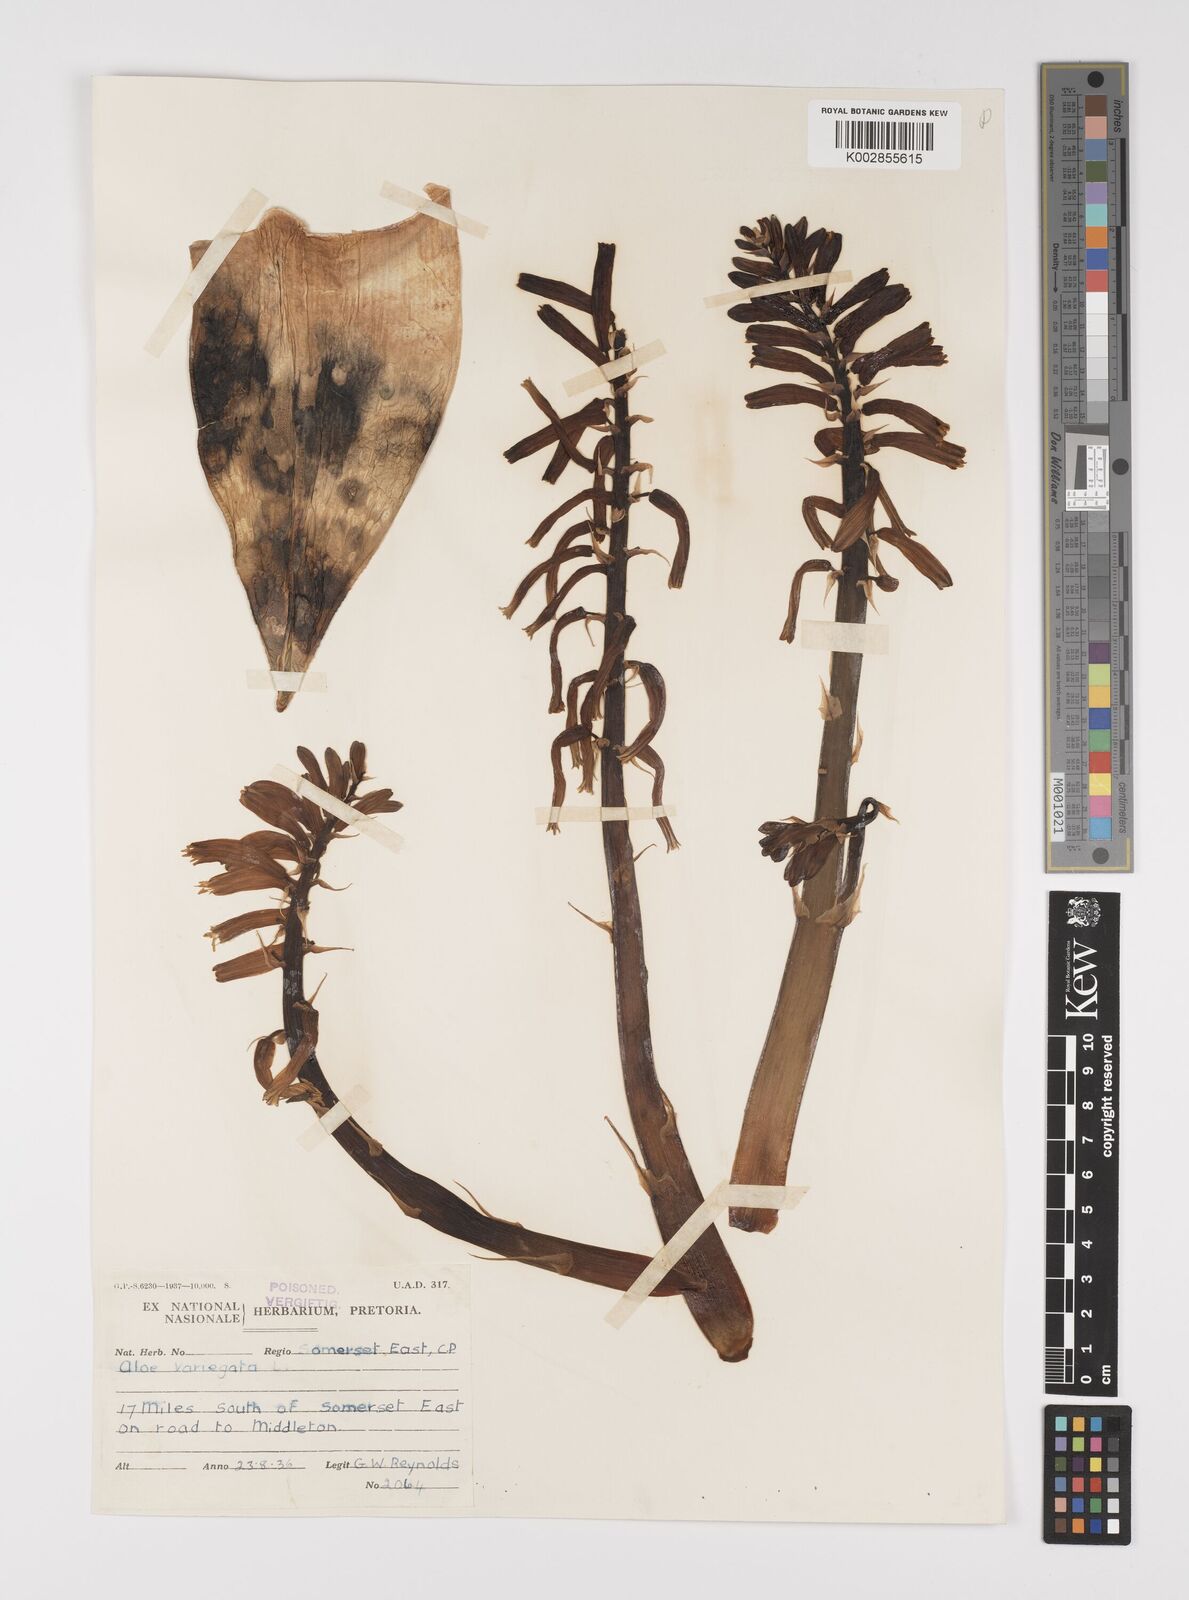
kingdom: Plantae
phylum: Tracheophyta
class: Liliopsida
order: Asparagales
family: Asphodelaceae
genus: Gonialoe
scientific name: Gonialoe variegata
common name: Aloe variegata
